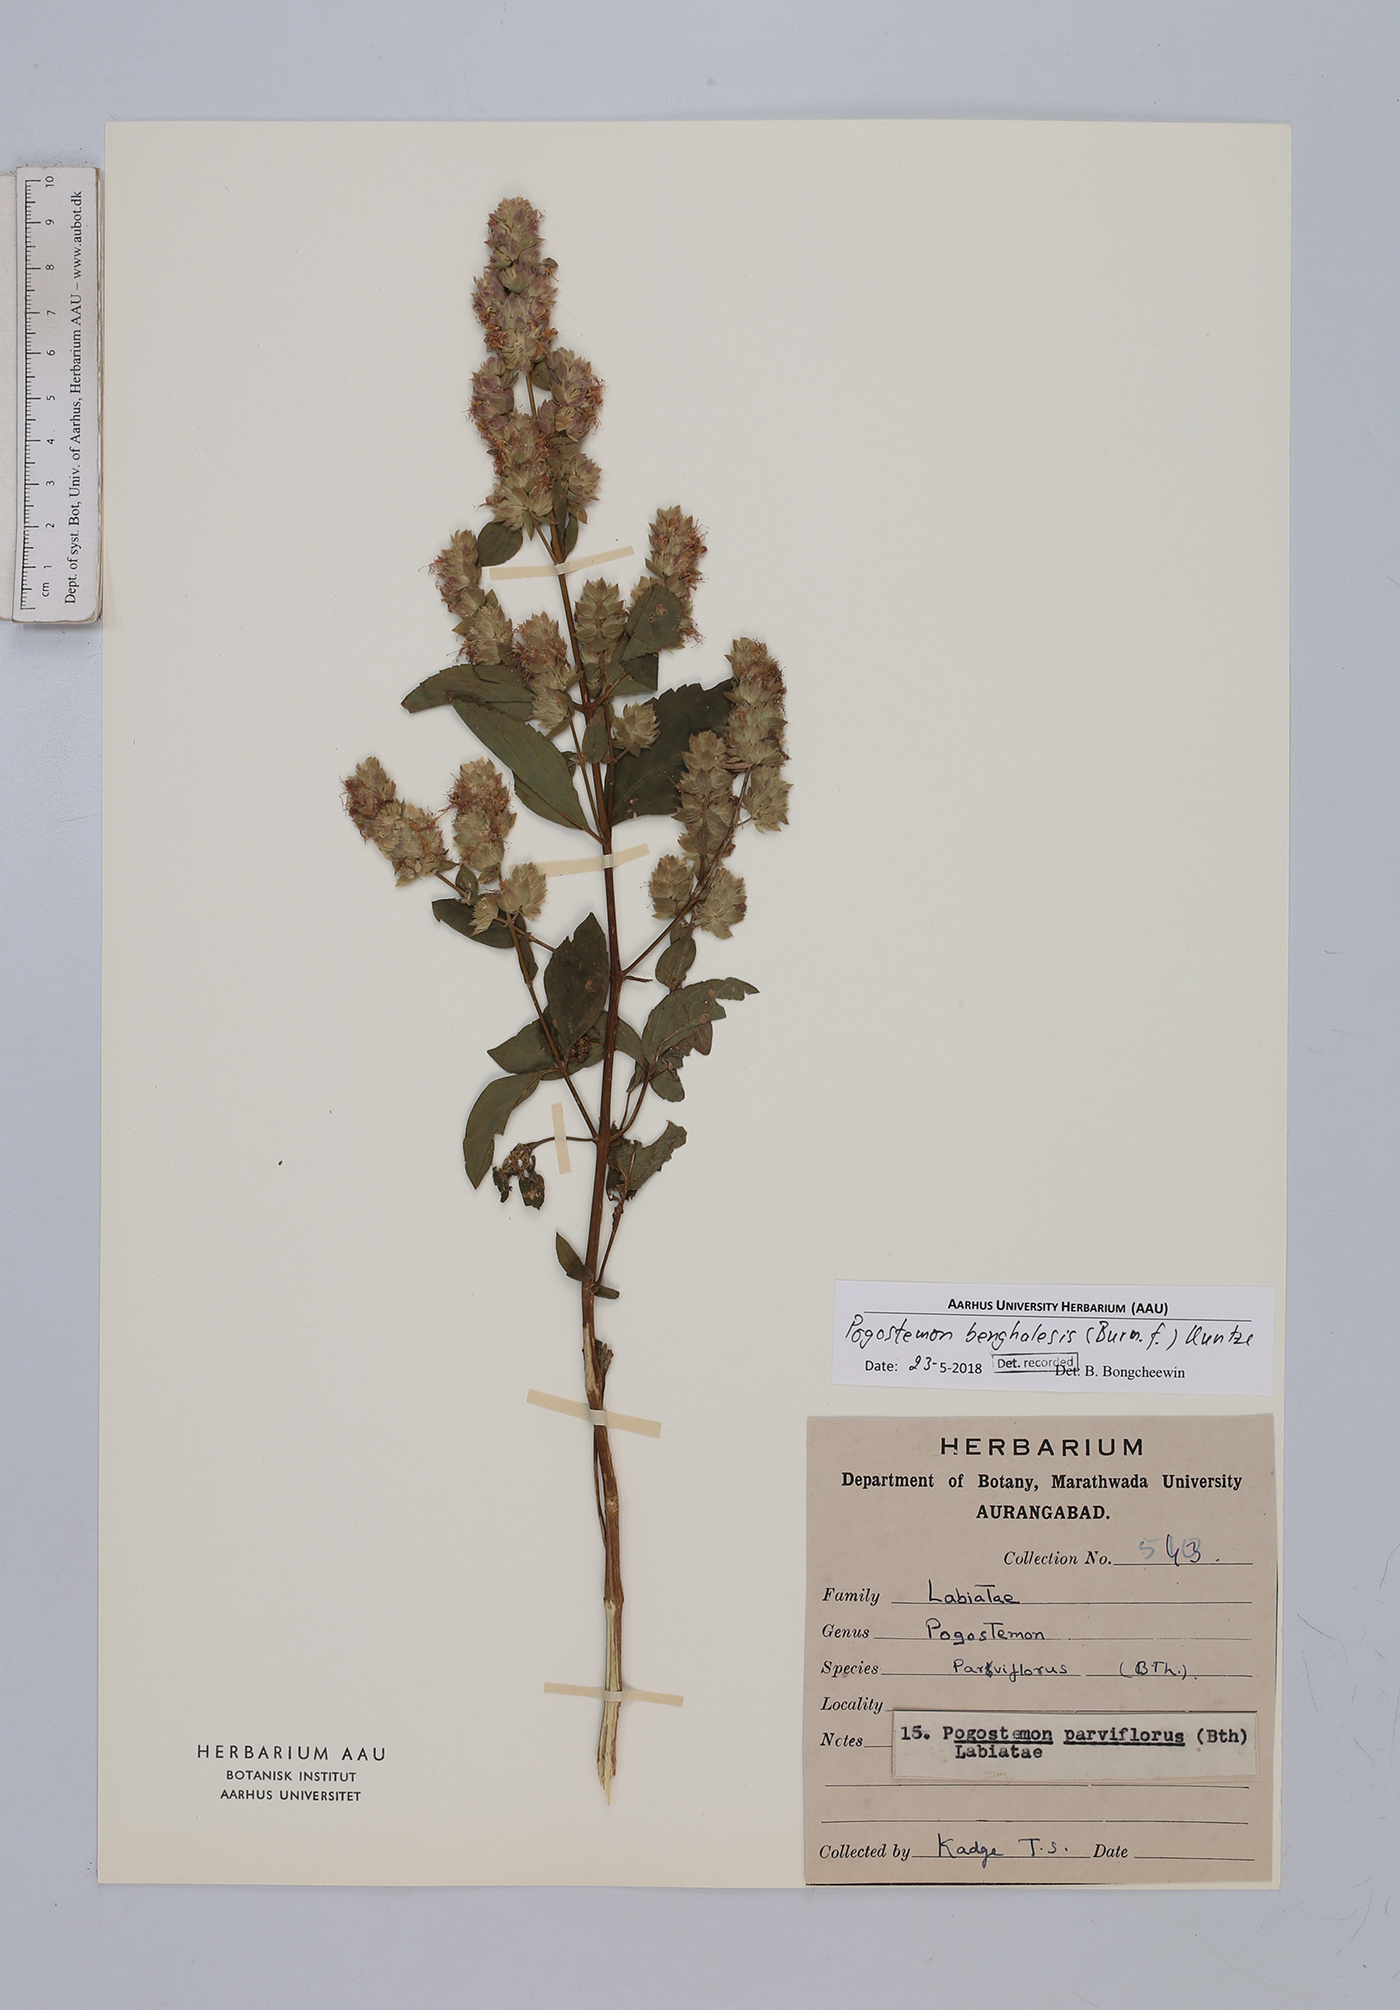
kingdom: Plantae
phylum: Tracheophyta
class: Magnoliopsida
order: Lamiales
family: Lamiaceae
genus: Pogostemon
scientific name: Pogostemon benghalensis
